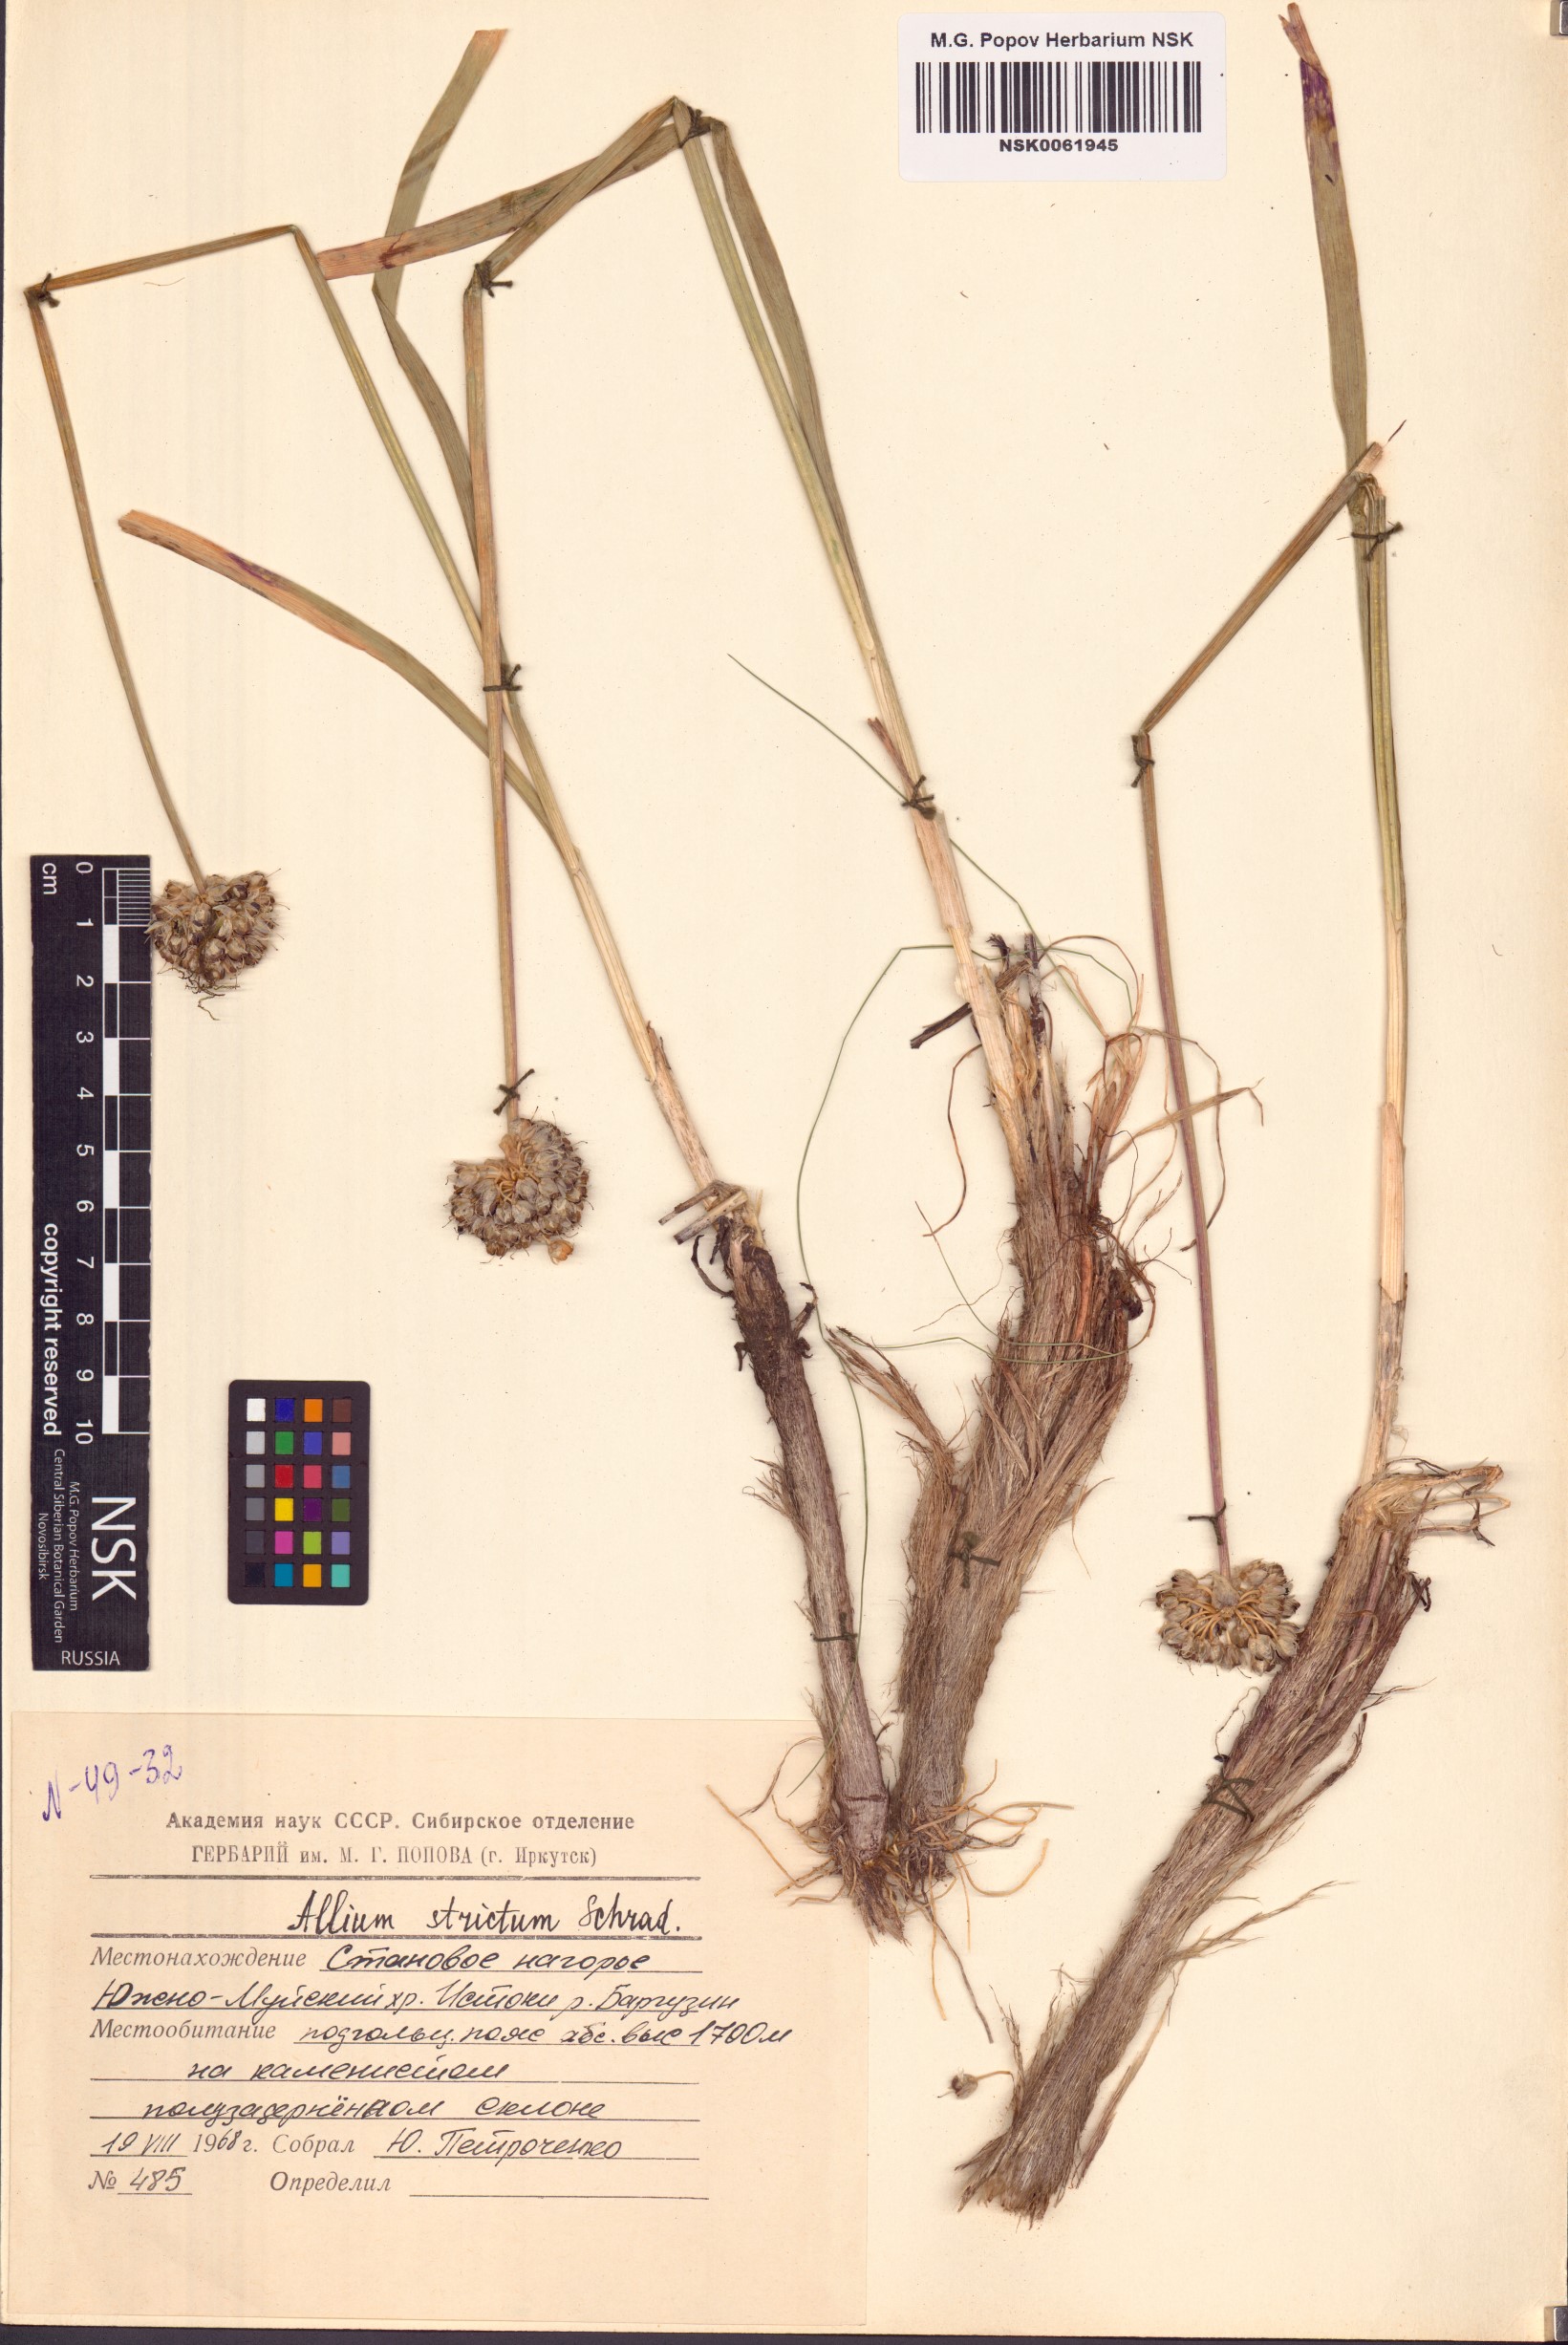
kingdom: Plantae
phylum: Tracheophyta
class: Liliopsida
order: Asparagales
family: Amaryllidaceae
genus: Allium
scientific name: Allium strictum
